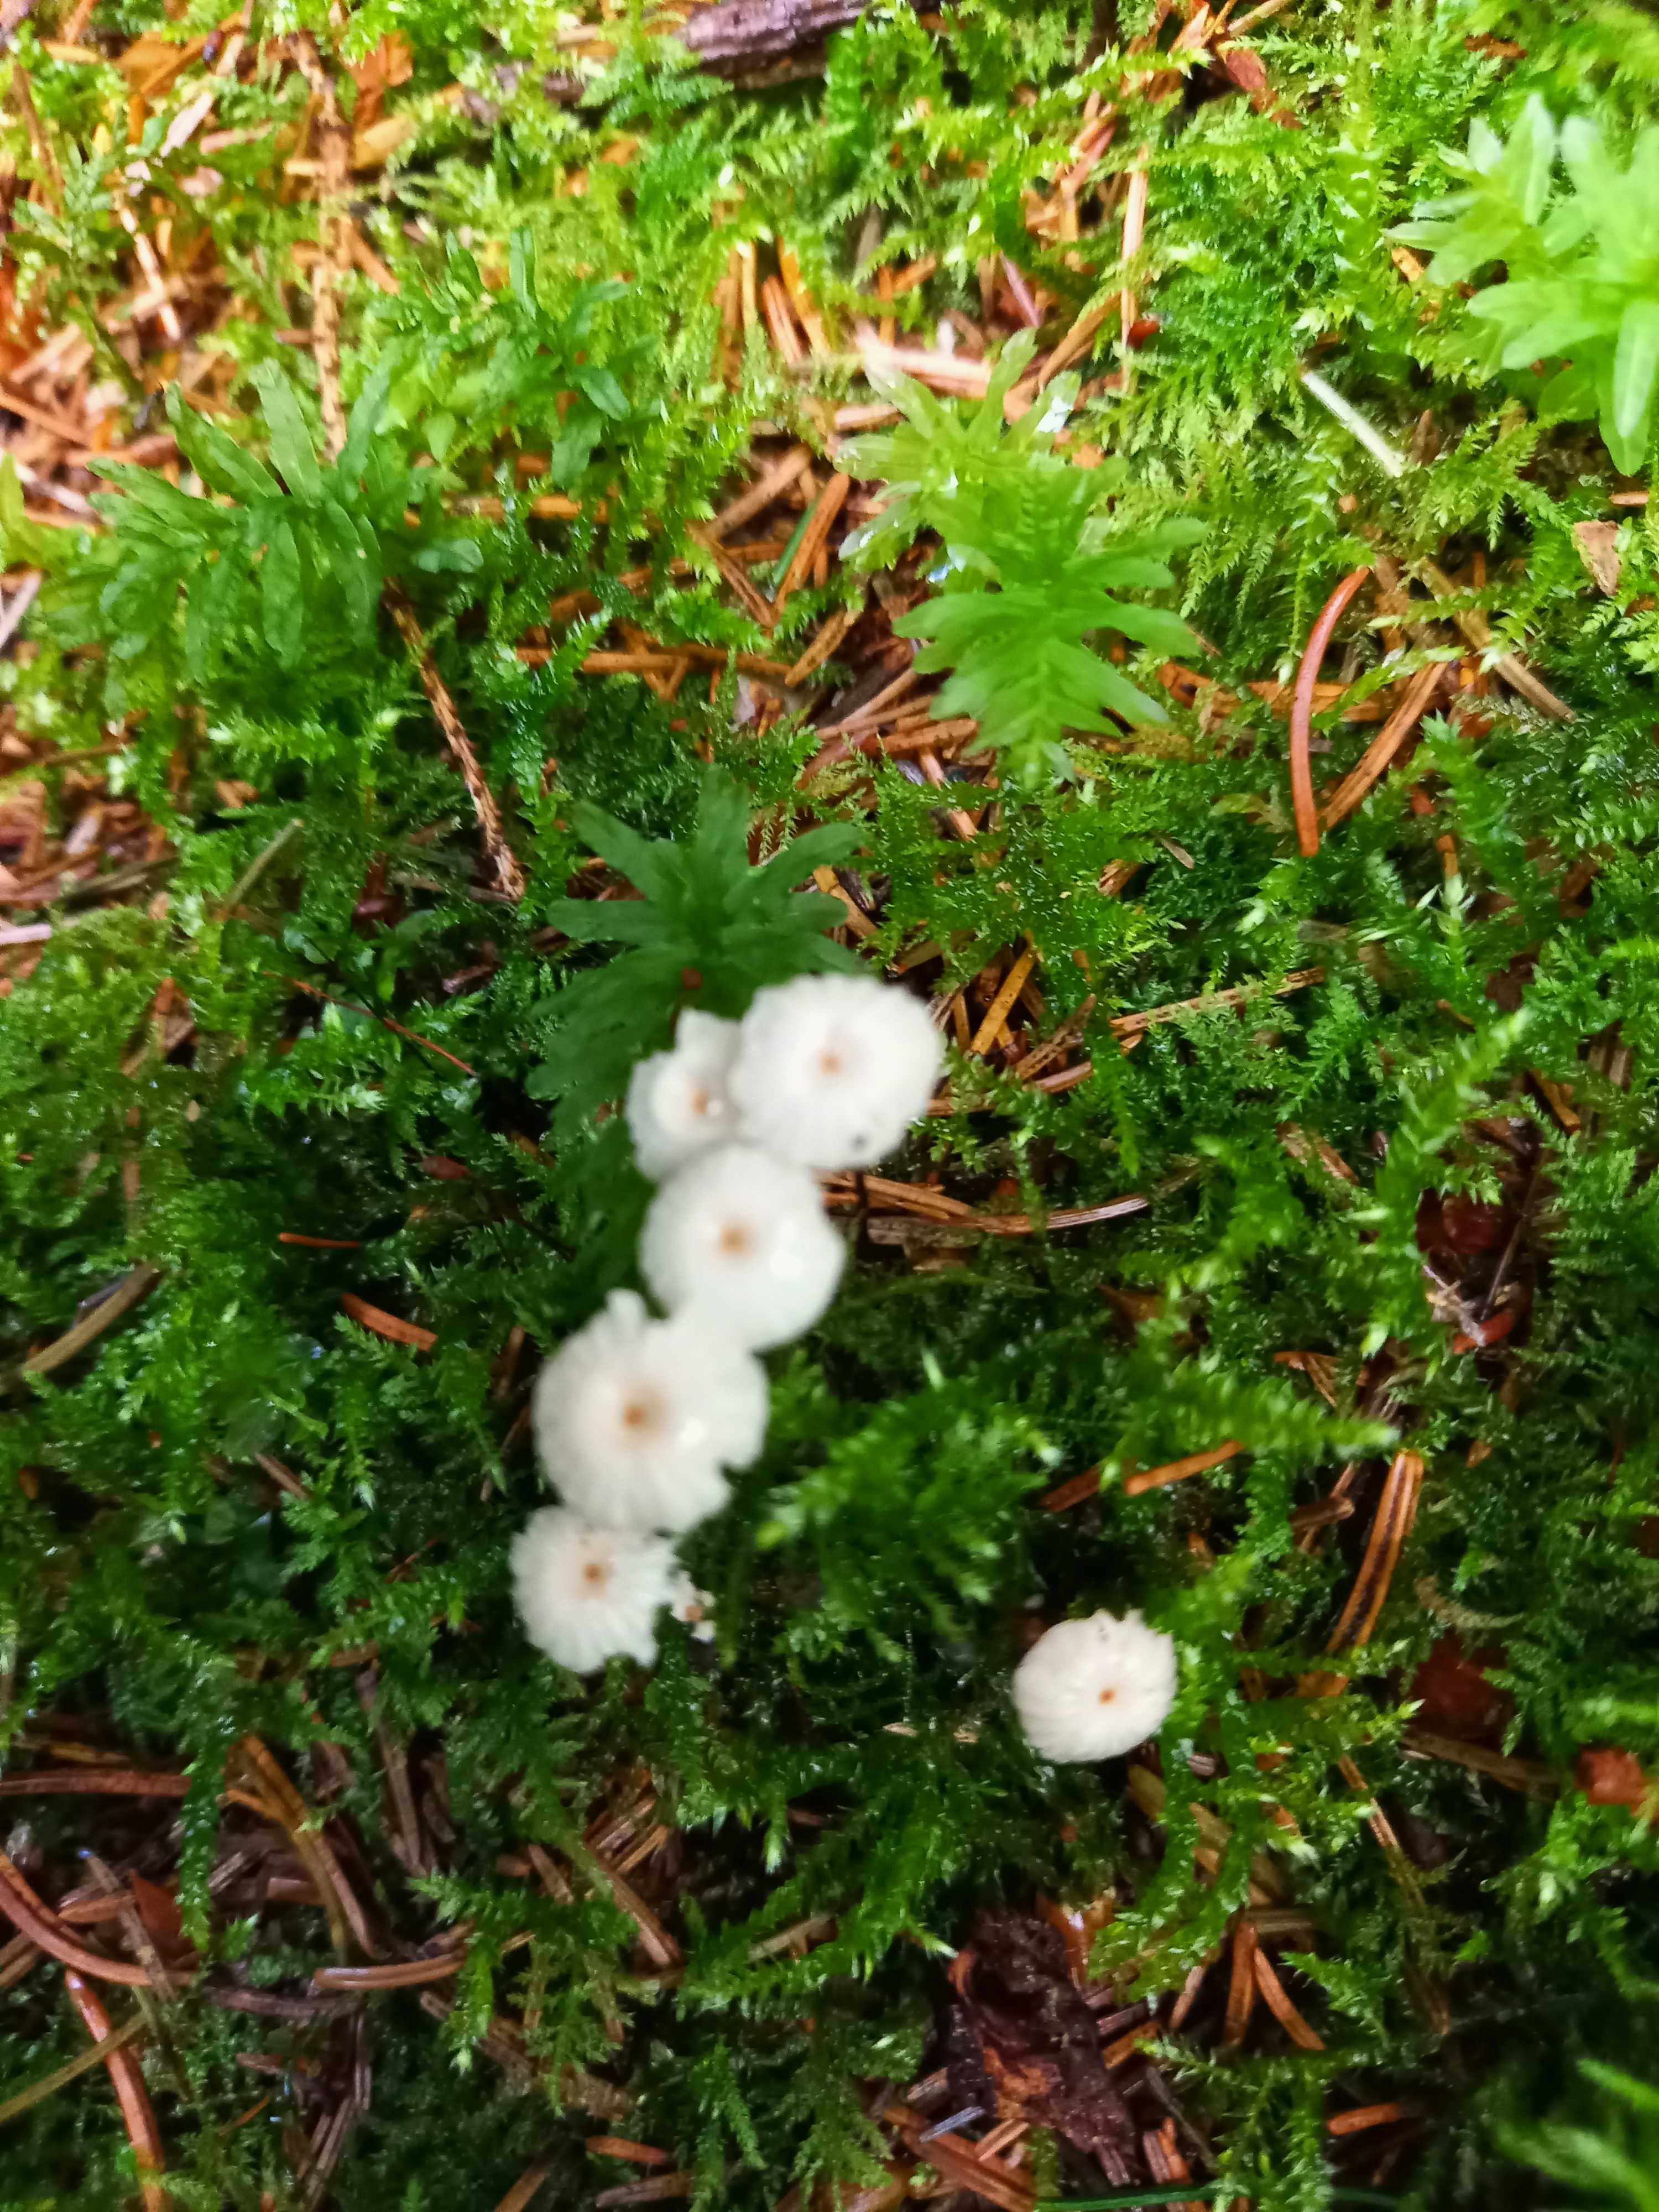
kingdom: Fungi
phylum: Basidiomycota
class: Agaricomycetes
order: Agaricales
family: Marasmiaceae
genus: Marasmius
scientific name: Marasmius rotula
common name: hjul-bruskhat
